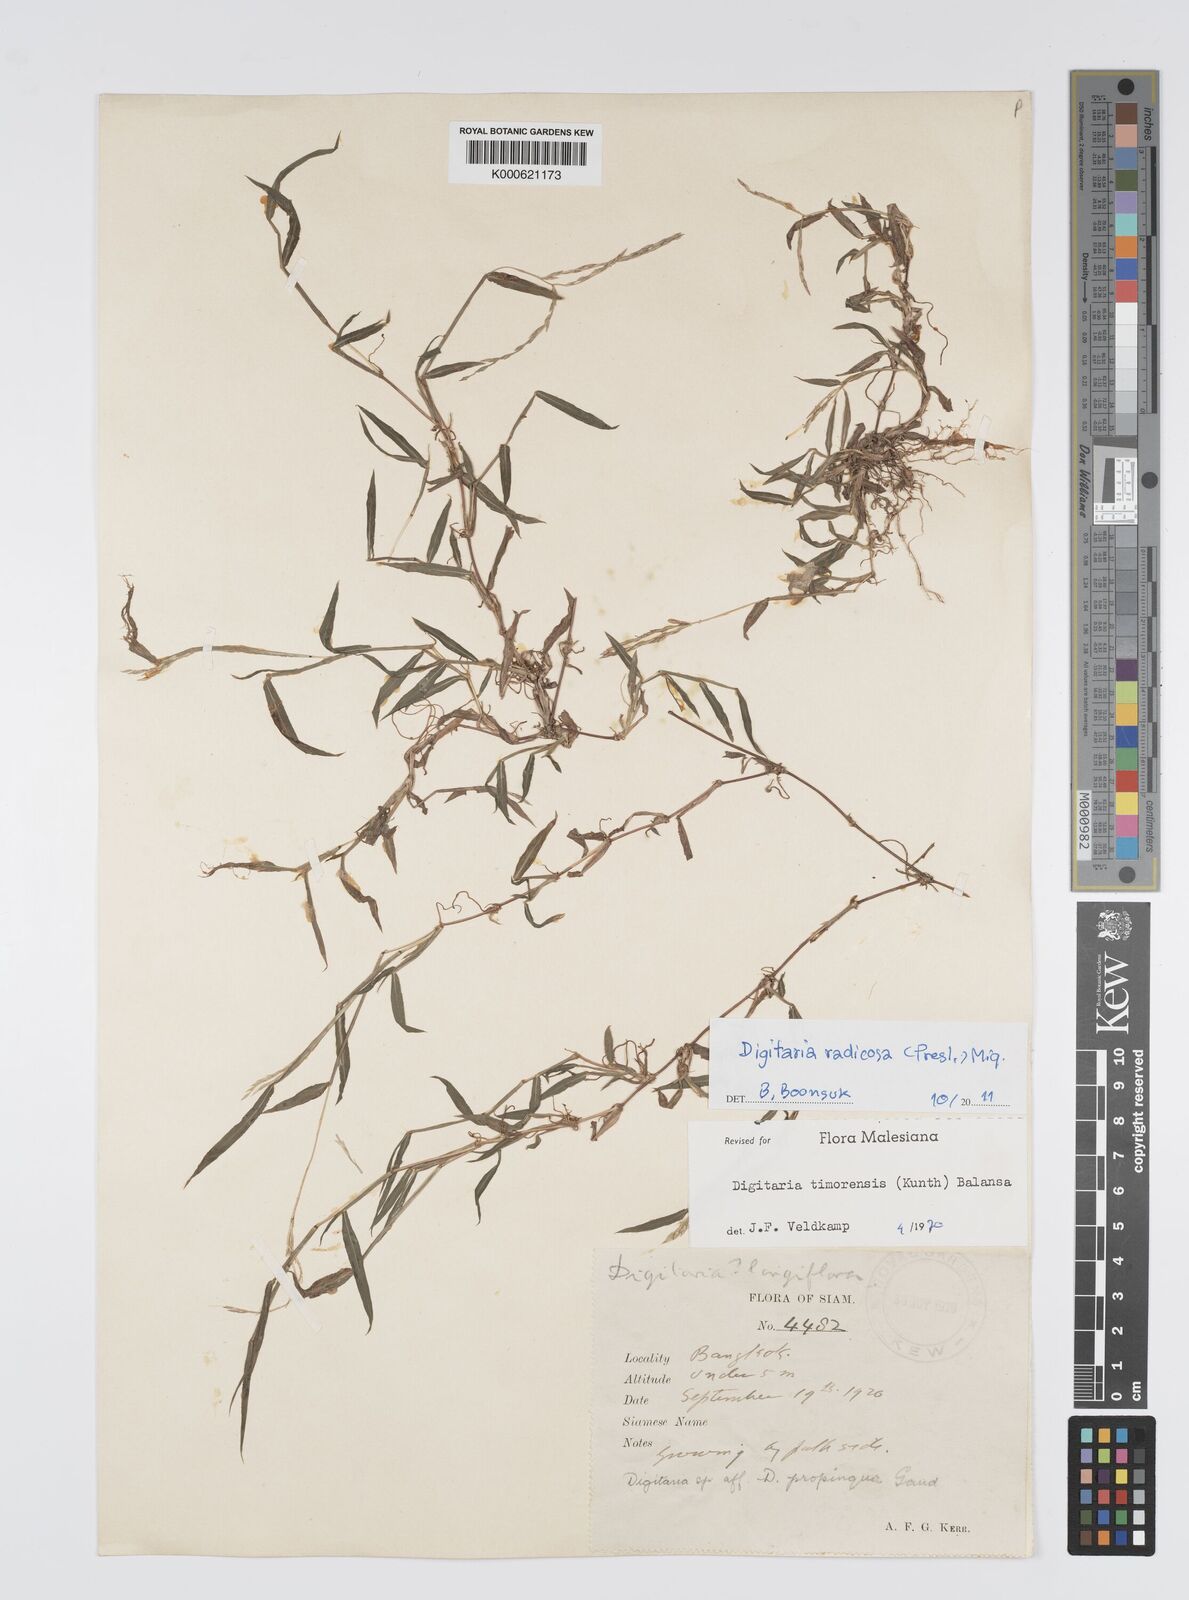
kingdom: Plantae
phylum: Tracheophyta
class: Liliopsida
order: Poales
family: Poaceae
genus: Digitaria
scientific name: Digitaria radicosa
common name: Trailing crabgrass
